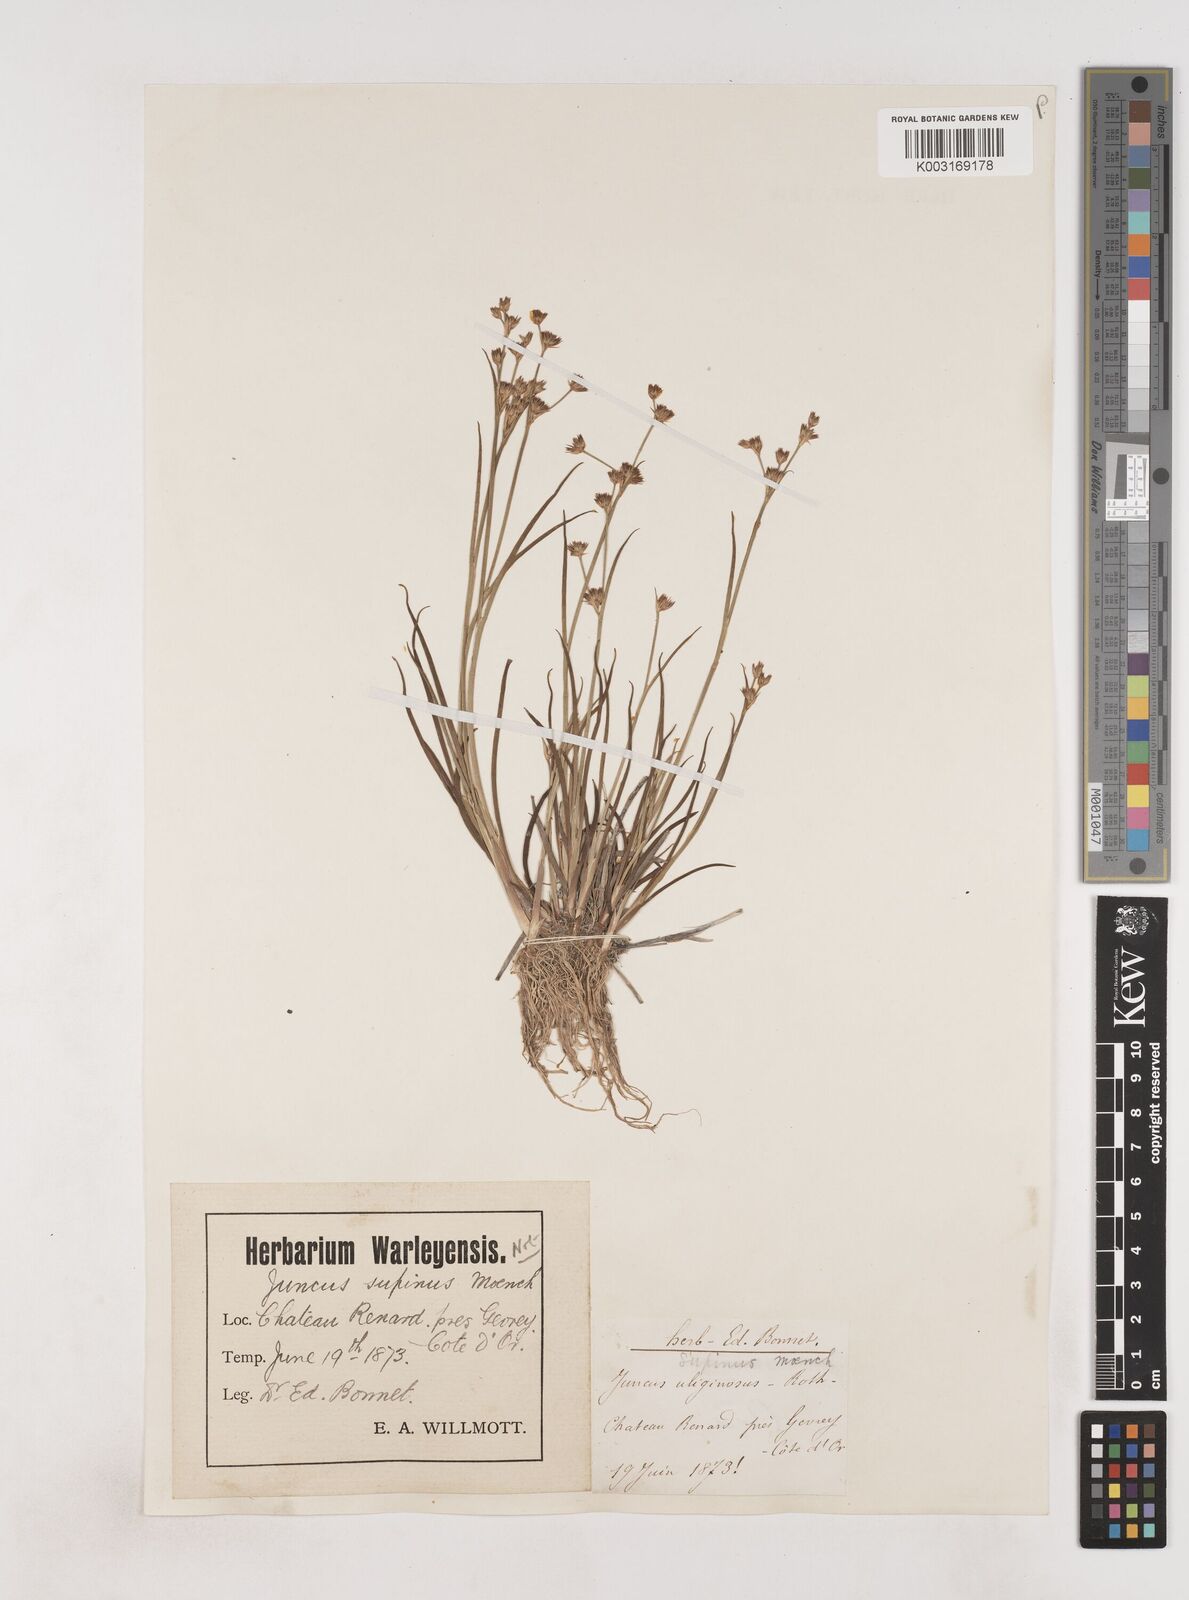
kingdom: Plantae
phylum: Tracheophyta
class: Liliopsida
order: Poales
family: Juncaceae
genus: Juncus
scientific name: Juncus bulbosus
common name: Bulbous rush
